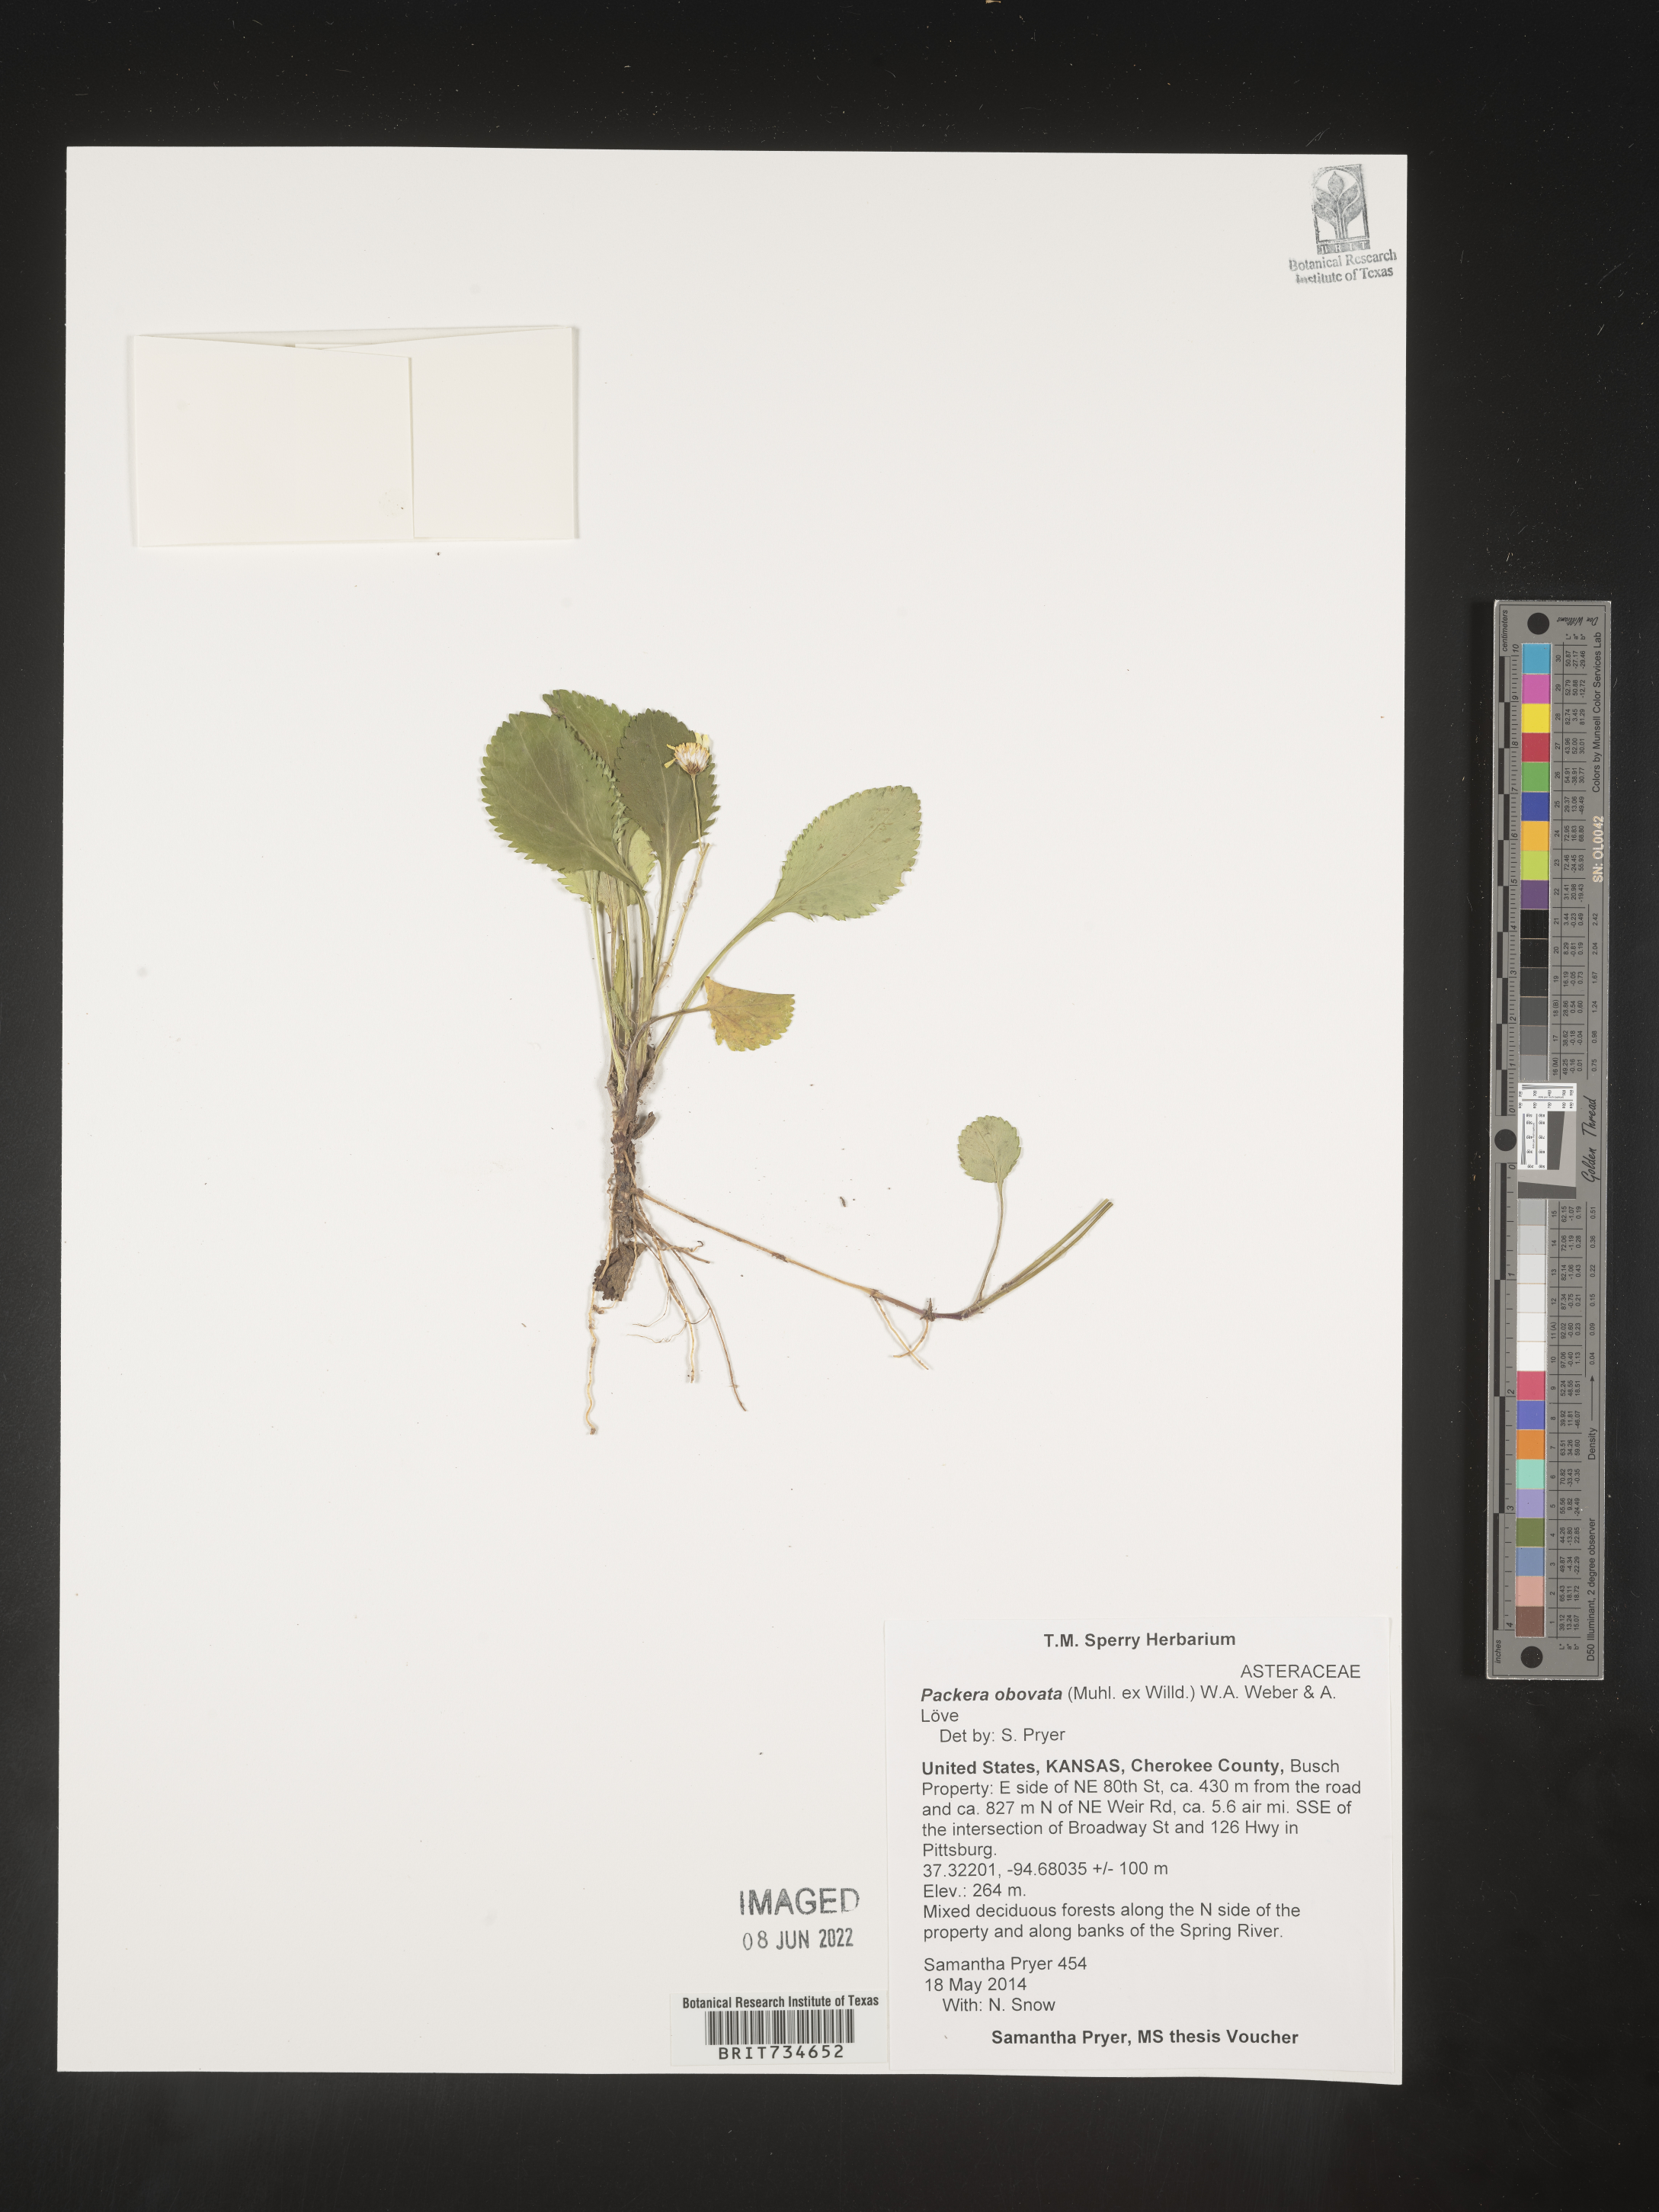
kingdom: Plantae
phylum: Tracheophyta
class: Magnoliopsida
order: Asterales
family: Asteraceae
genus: Packera
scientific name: Packera obovata
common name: Round-leaf ragwort
